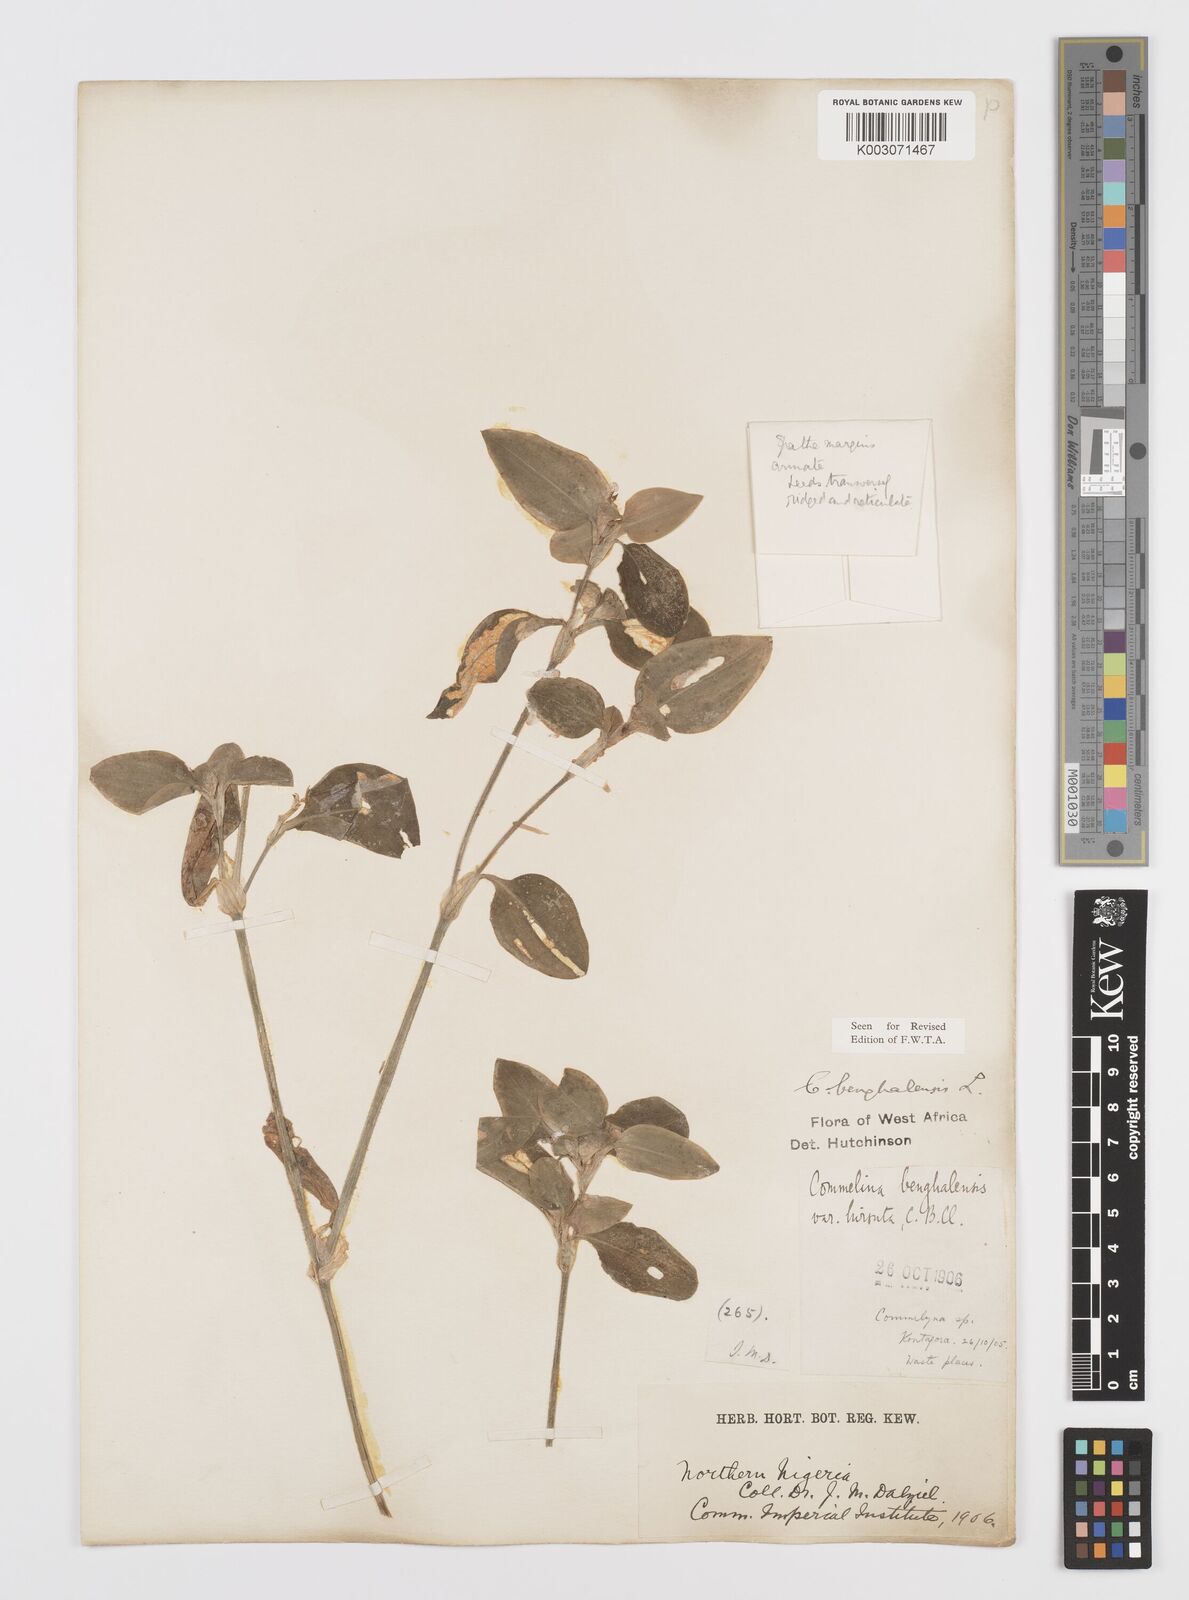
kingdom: Plantae
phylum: Tracheophyta
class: Liliopsida
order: Commelinales
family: Commelinaceae
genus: Commelina
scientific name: Commelina africana
